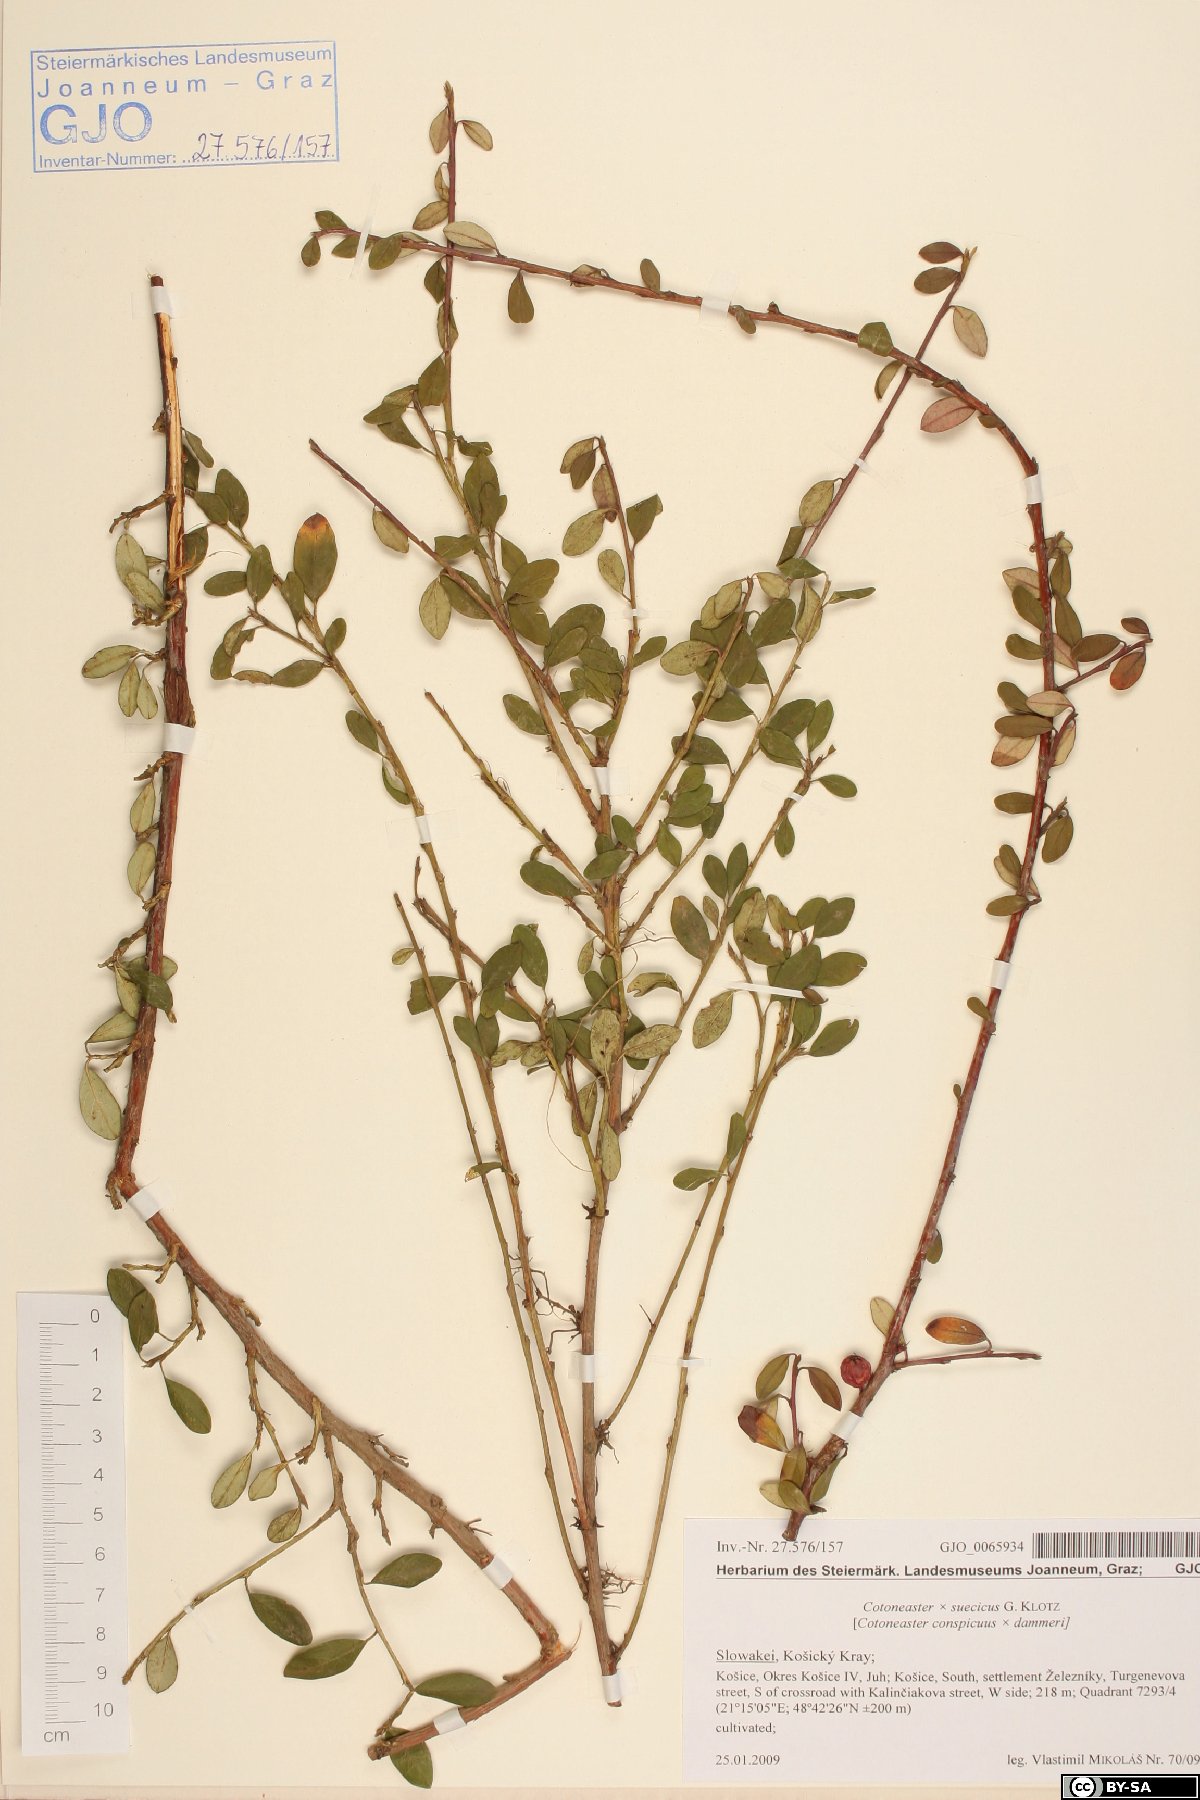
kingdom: Plantae
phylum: Tracheophyta
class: Magnoliopsida
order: Rosales
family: Rosaceae
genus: Cotoneaster
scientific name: Cotoneaster suecicus
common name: Swedish cotoneaster
